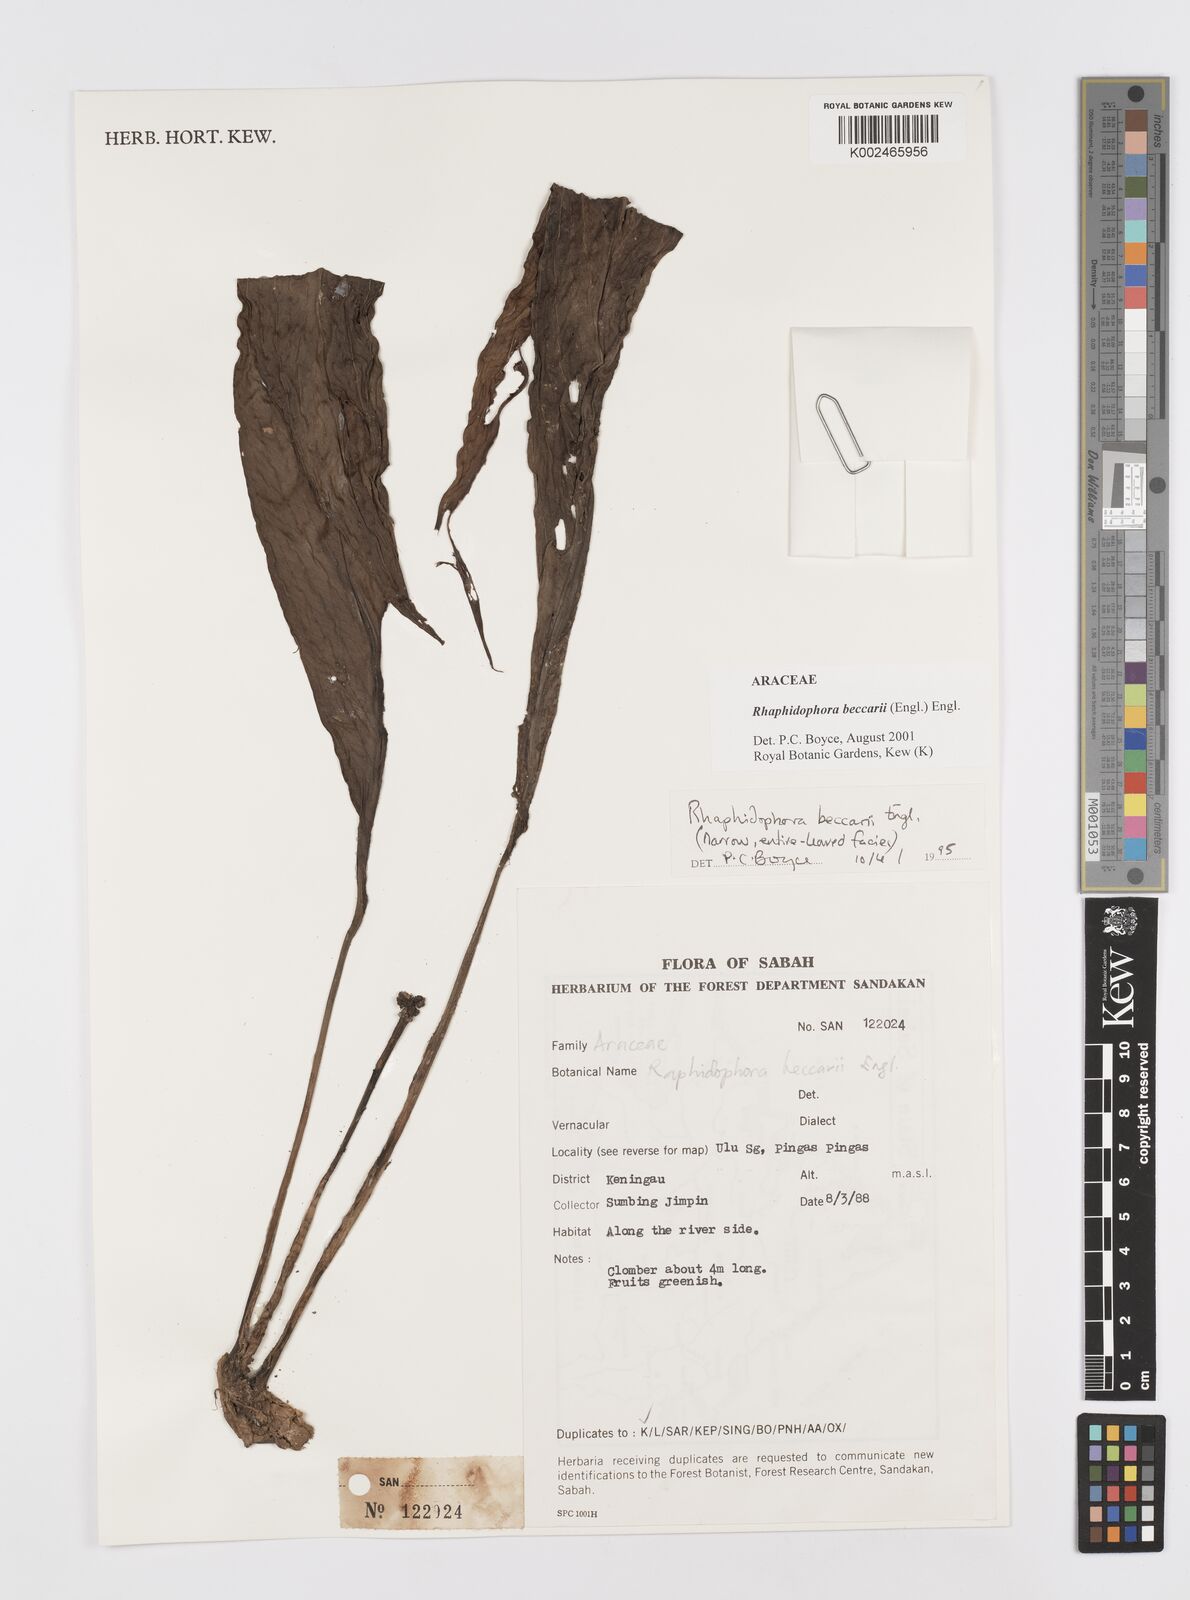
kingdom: Plantae
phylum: Tracheophyta
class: Liliopsida
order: Alismatales
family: Araceae
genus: Rhaphidophora
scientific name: Rhaphidophora beccarii
